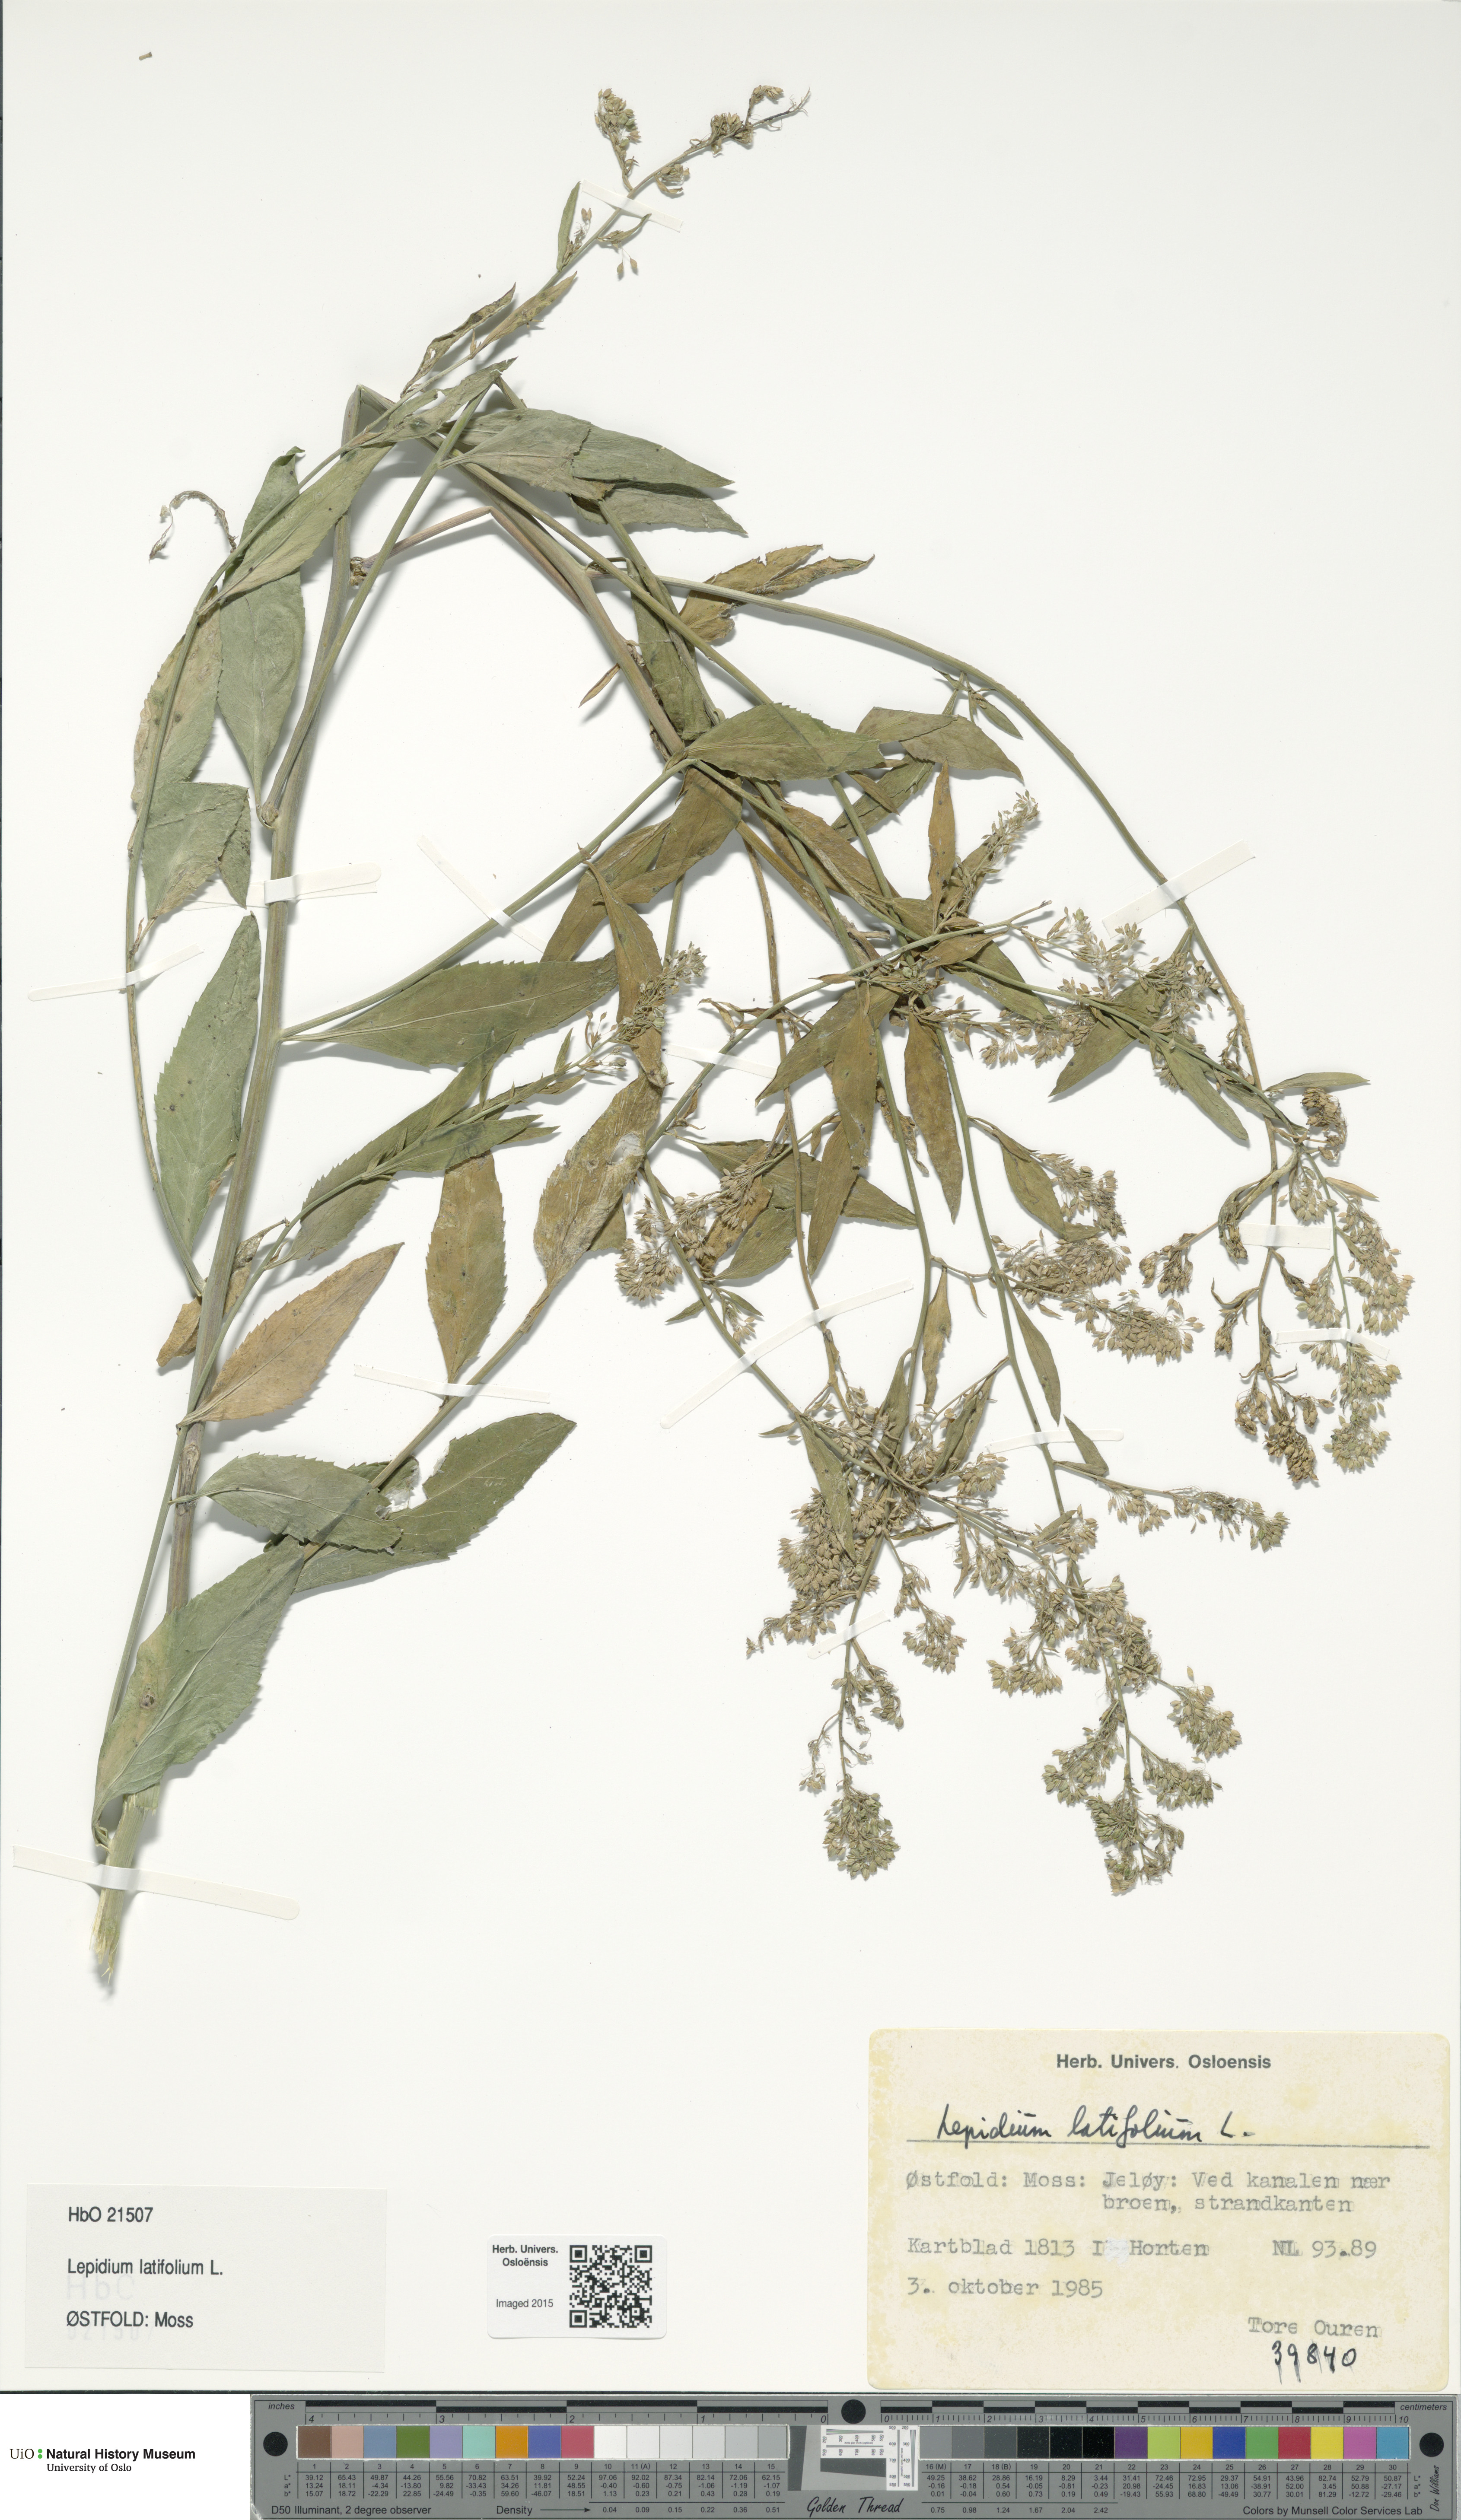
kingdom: Plantae
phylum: Tracheophyta
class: Magnoliopsida
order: Brassicales
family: Brassicaceae
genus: Lepidium
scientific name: Lepidium latifolium
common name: Dittander
